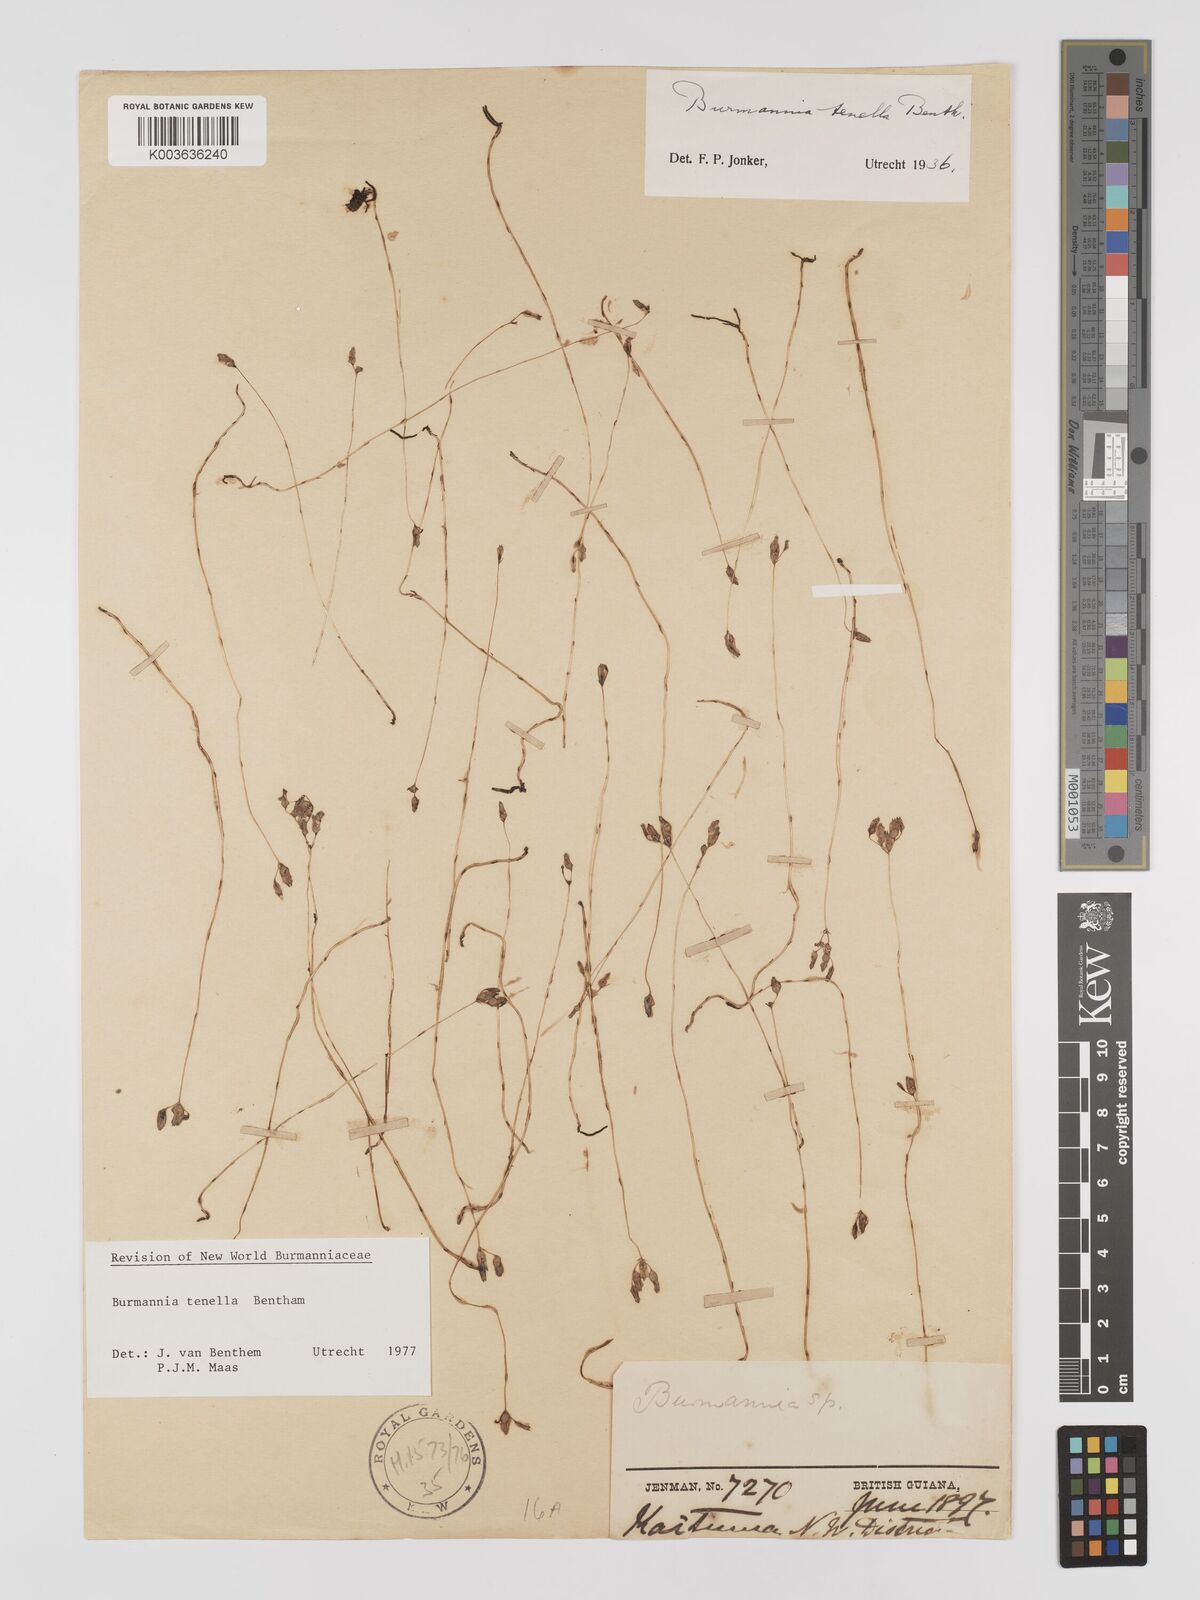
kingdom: Plantae
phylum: Tracheophyta
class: Liliopsida
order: Dioscoreales
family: Burmanniaceae
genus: Burmannia
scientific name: Burmannia tenella
